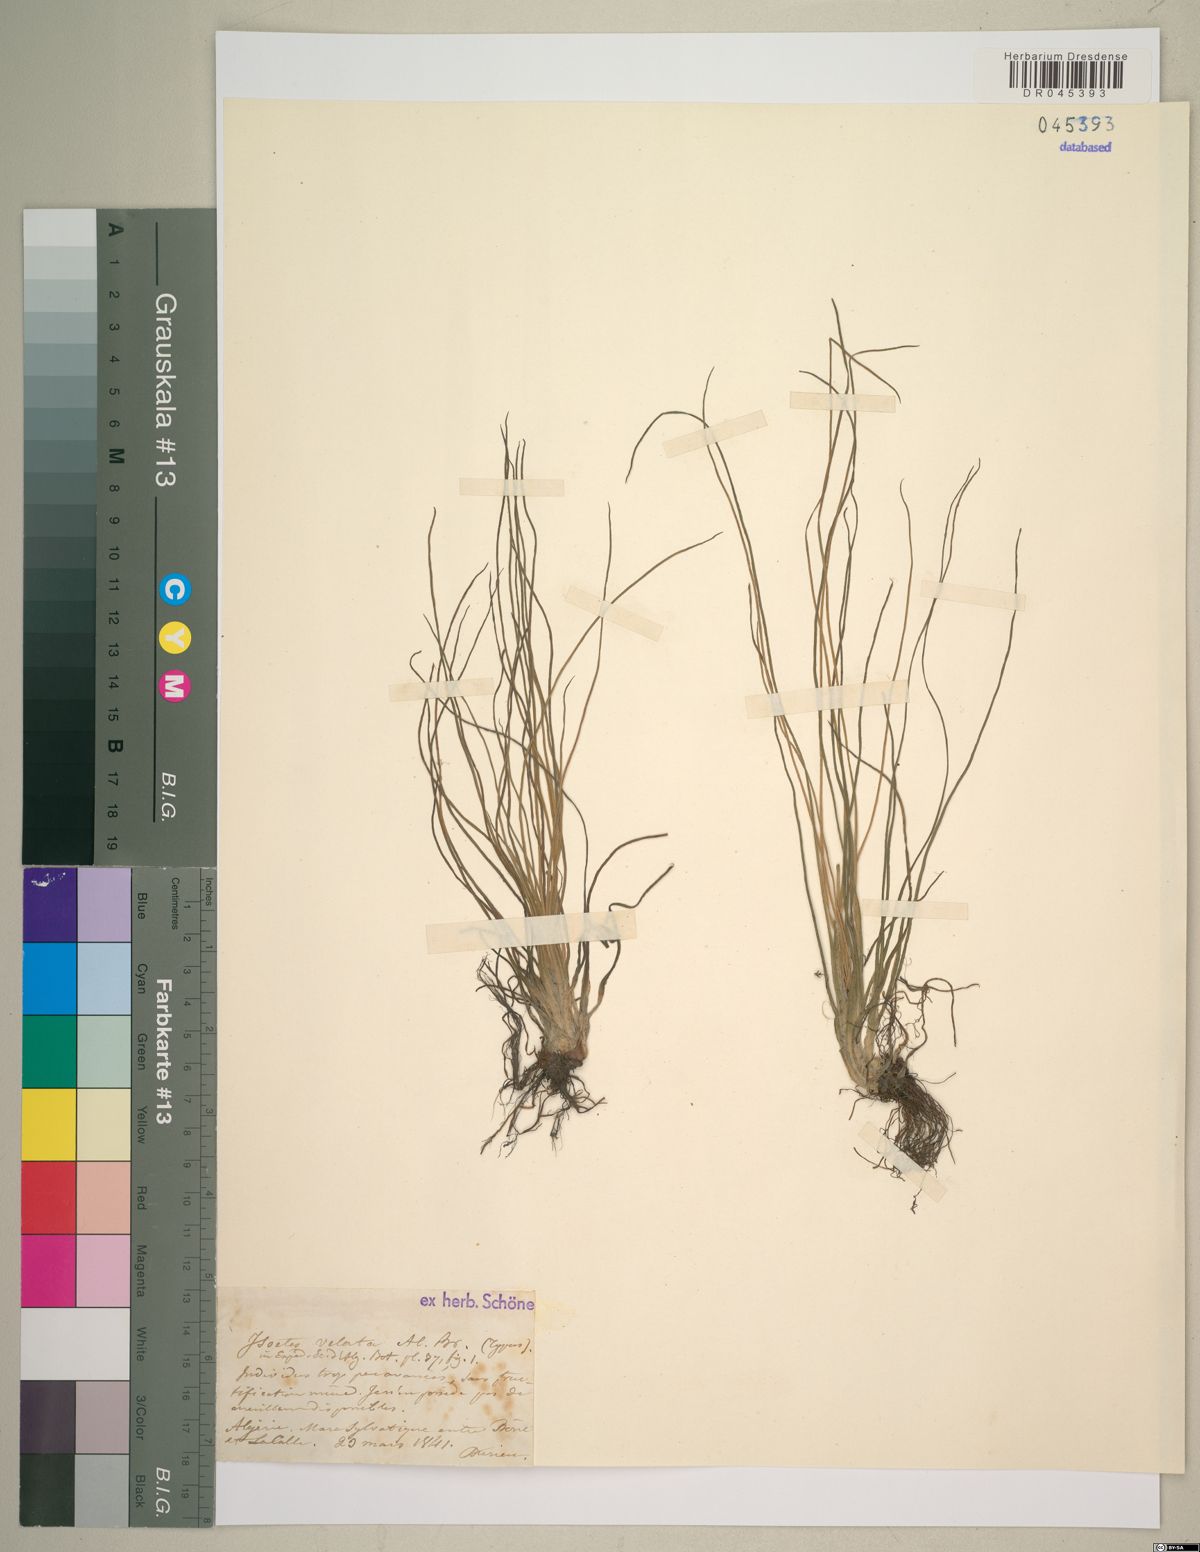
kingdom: Plantae
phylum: Tracheophyta
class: Lycopodiopsida
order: Isoetales
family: Isoetaceae
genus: Isoetes
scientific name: Isoetes longissima
